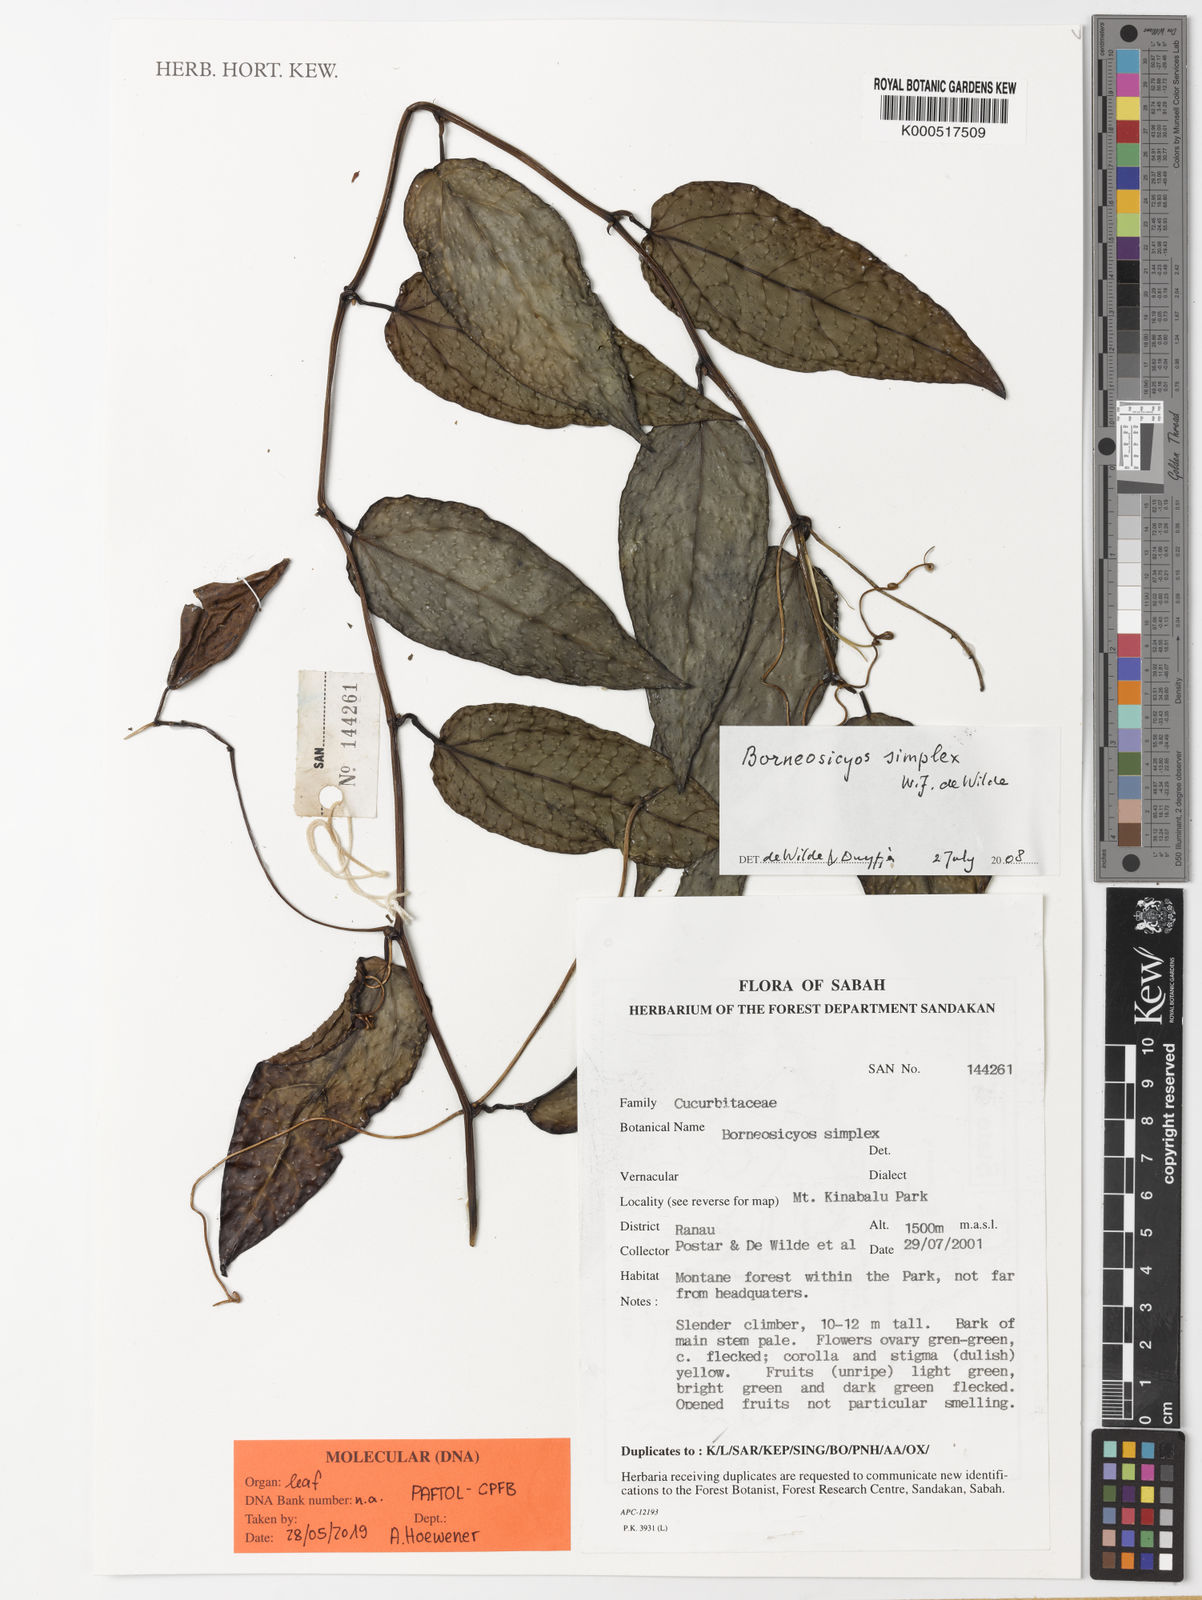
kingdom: Plantae
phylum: Tracheophyta
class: Magnoliopsida
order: Cucurbitales
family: Cucurbitaceae
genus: Borneosicyos
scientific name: Borneosicyos simplex
